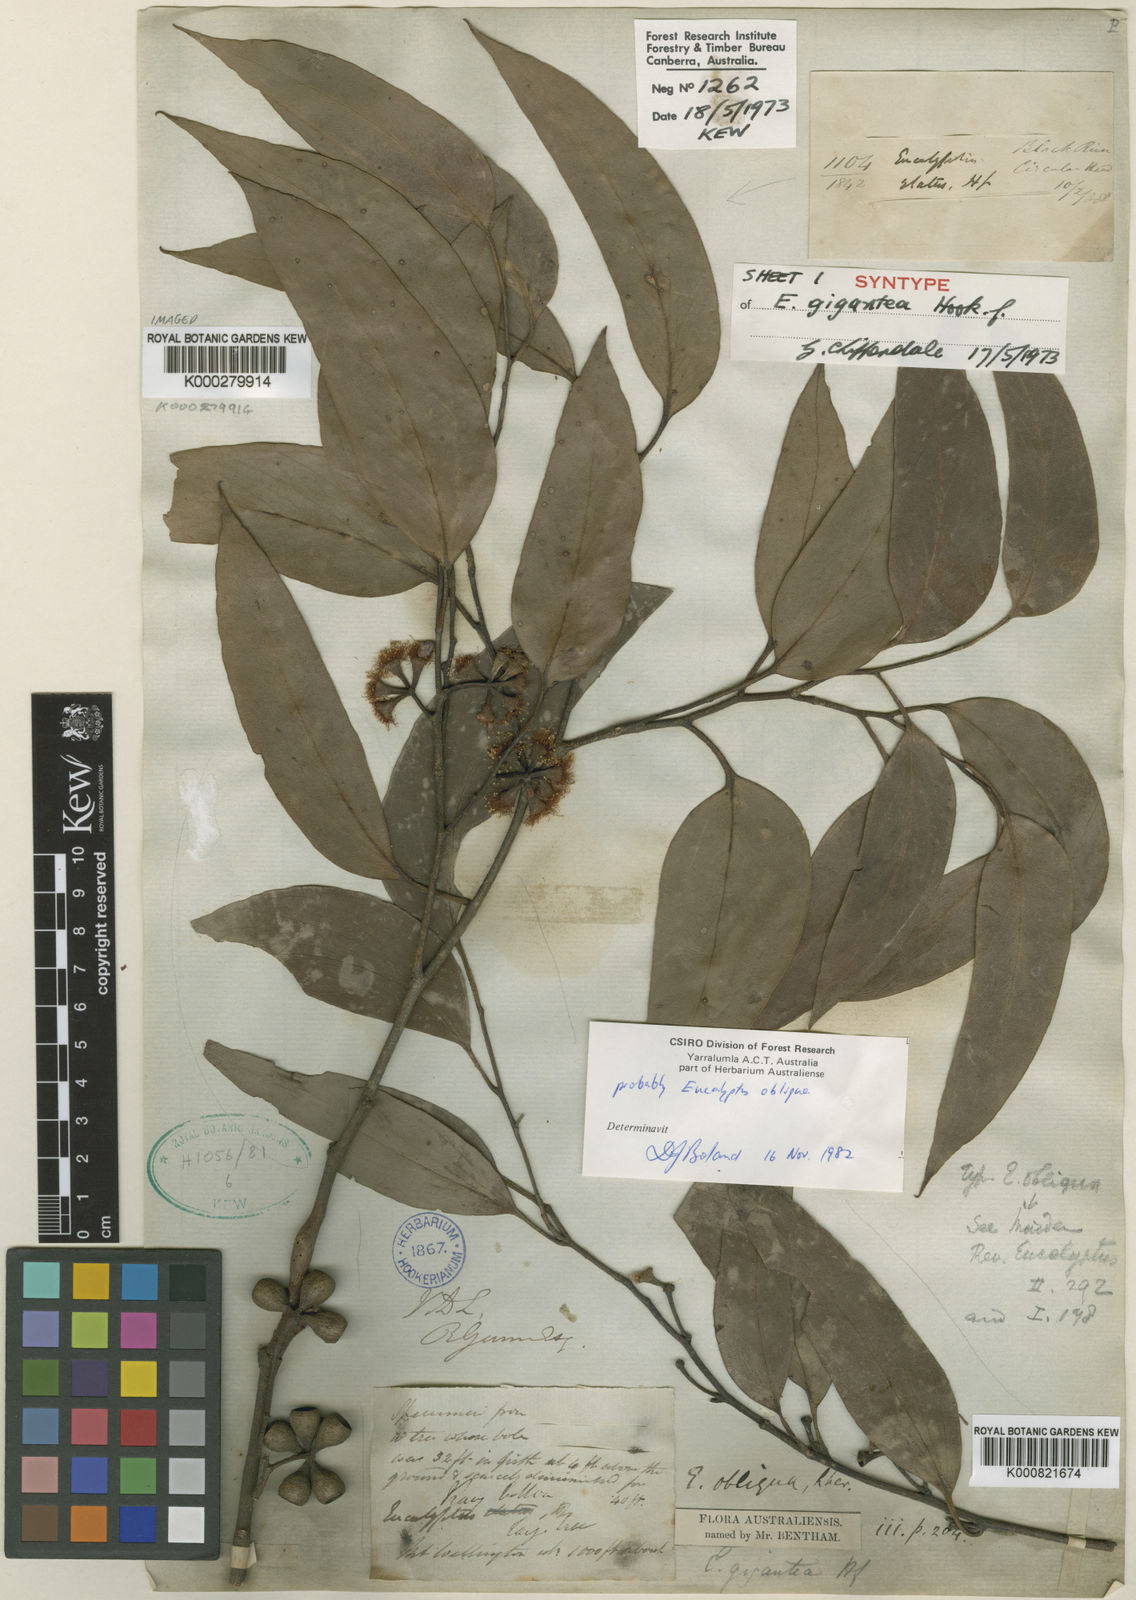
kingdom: Plantae
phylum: Tracheophyta
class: Magnoliopsida
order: Myrtales
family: Myrtaceae
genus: Eucalyptus
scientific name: Eucalyptus delegatensis
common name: Alpine-ash
